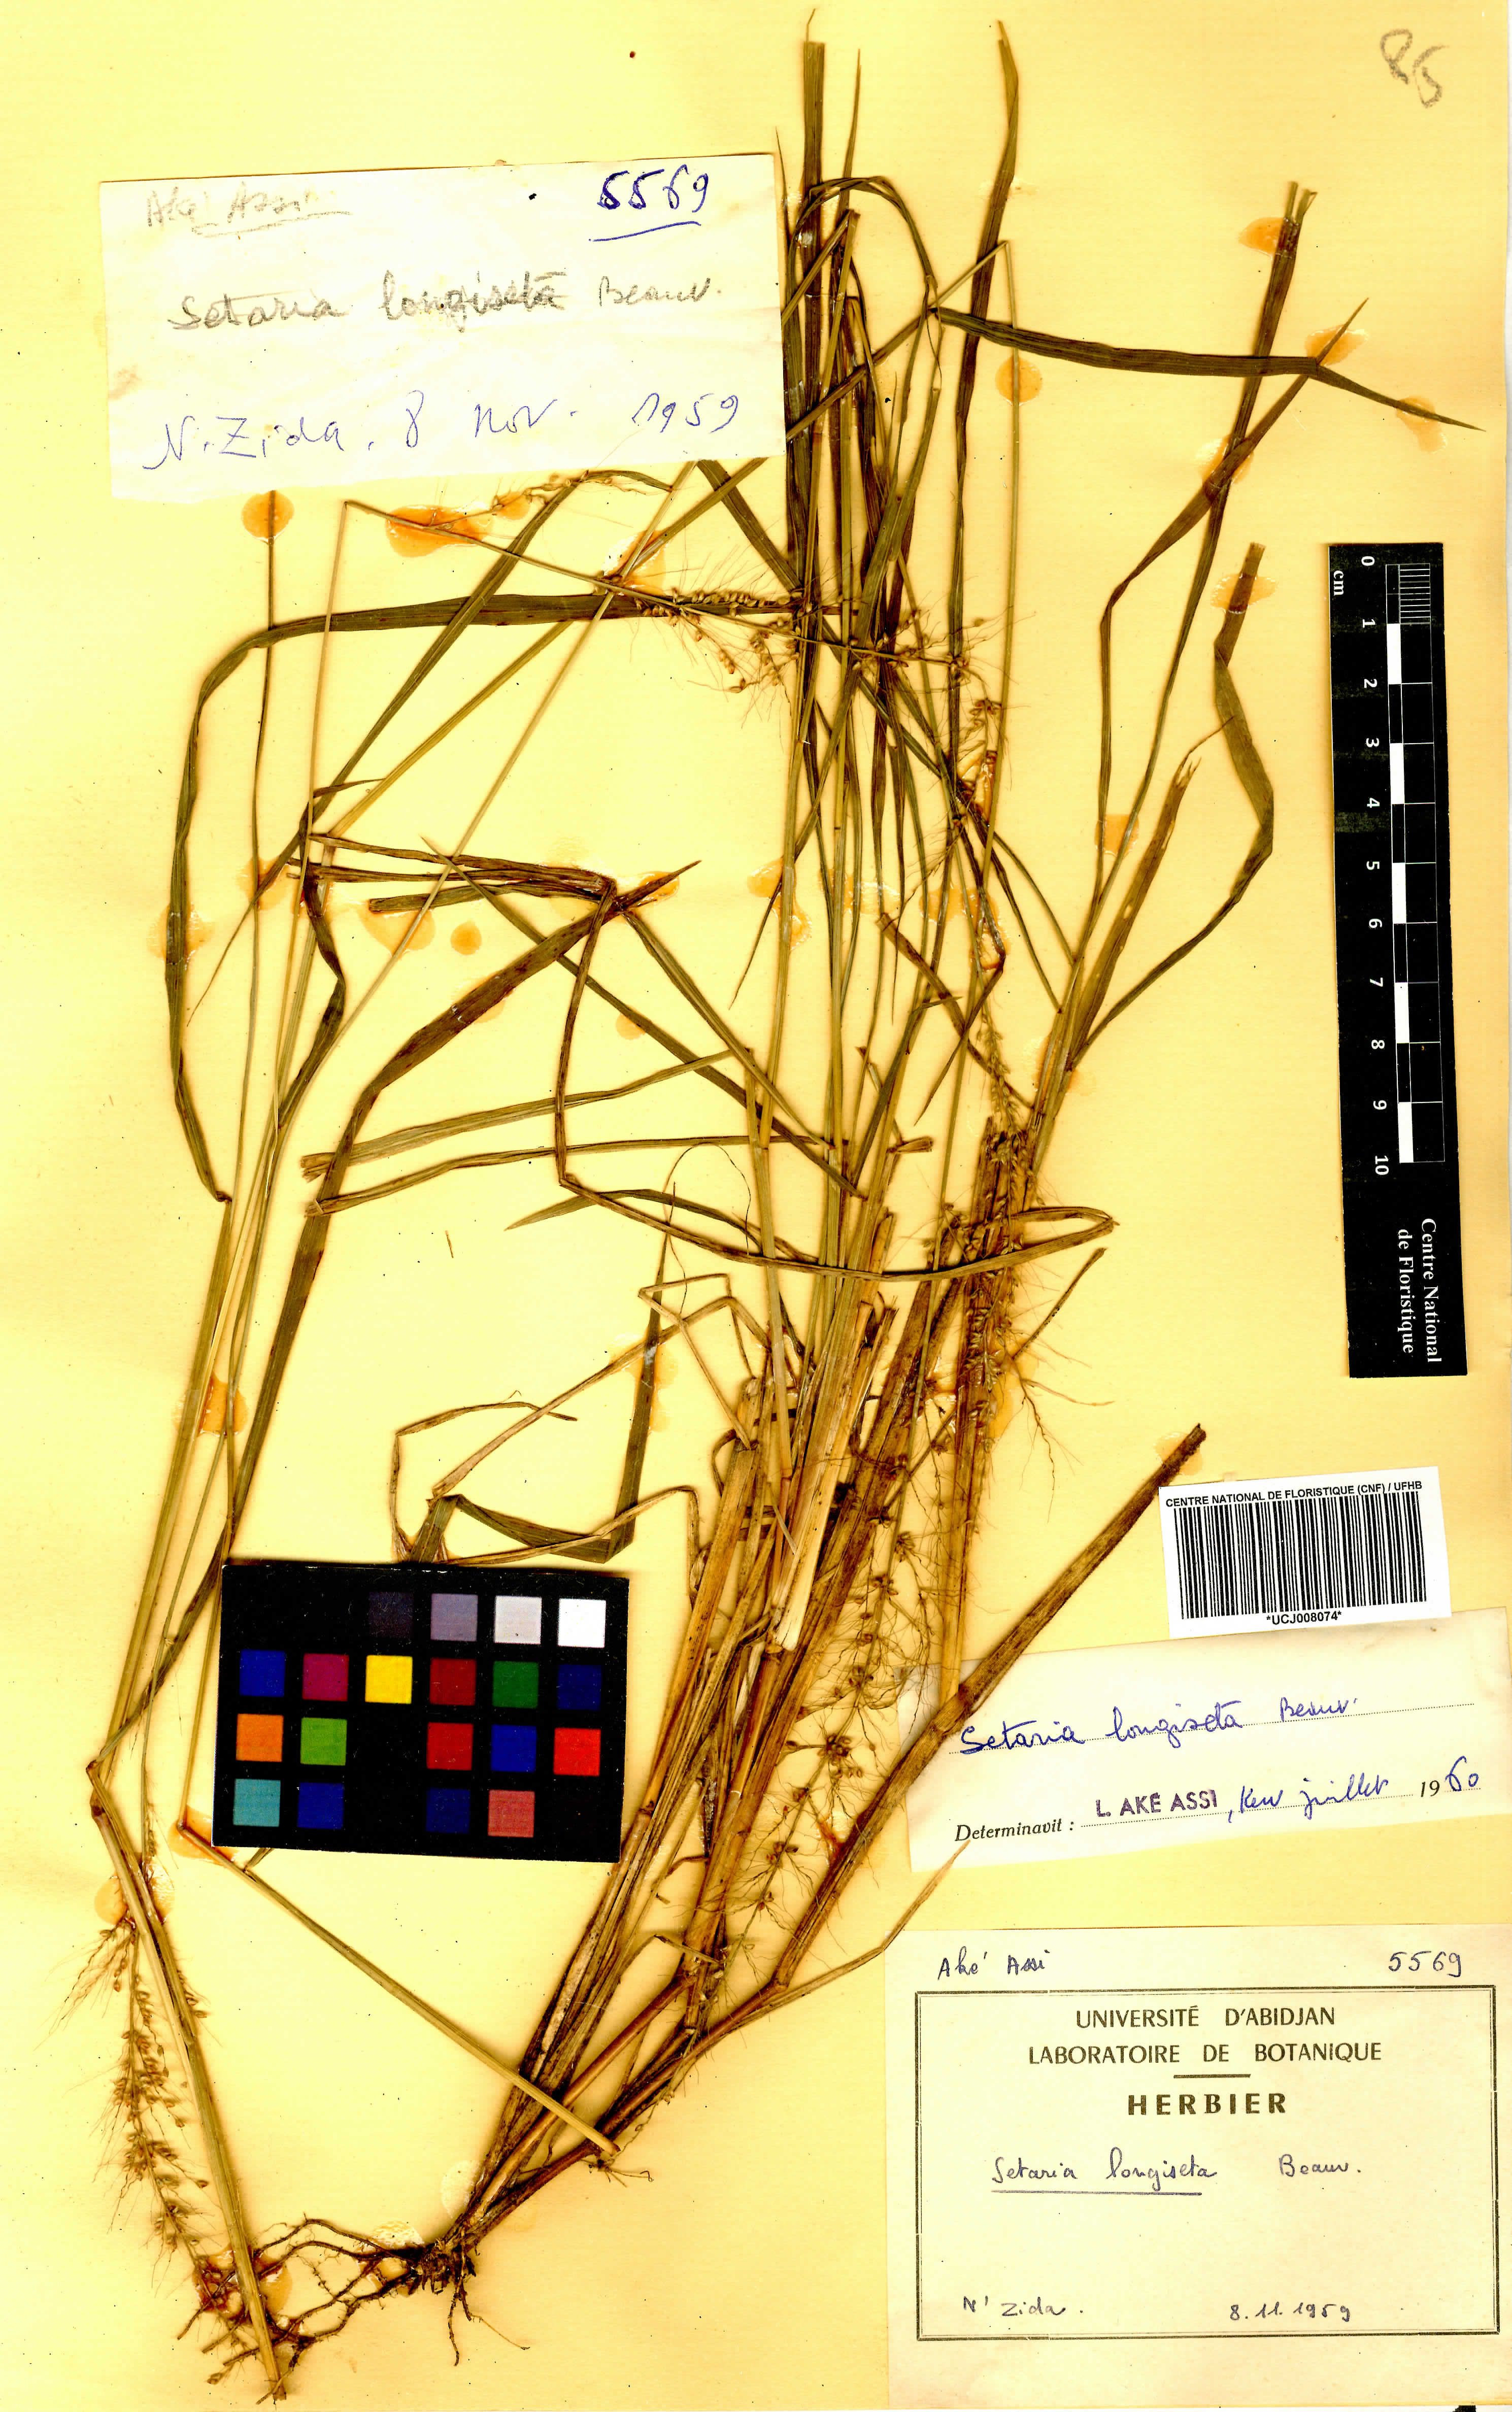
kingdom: Plantae
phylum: Tracheophyta
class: Liliopsida
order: Poales
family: Poaceae
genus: Setaria
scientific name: Setaria longiseta
